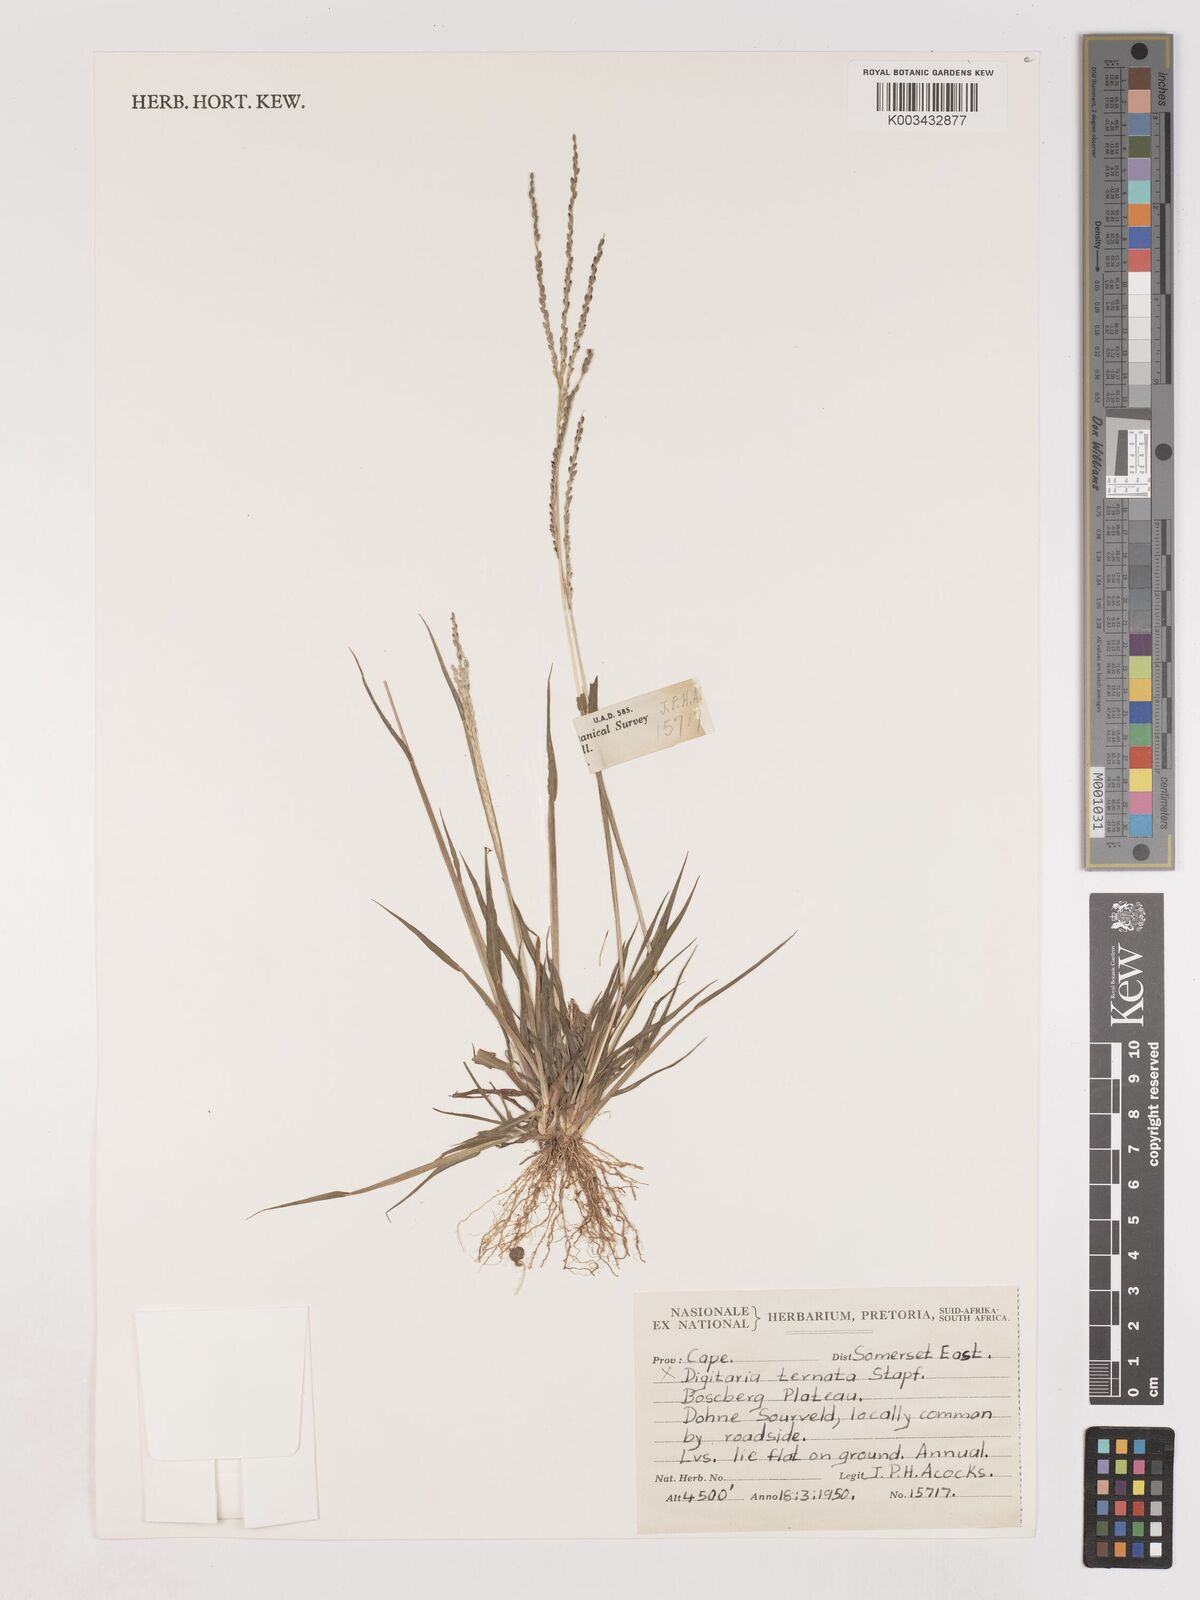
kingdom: Plantae
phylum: Tracheophyta
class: Liliopsida
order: Poales
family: Poaceae
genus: Digitaria
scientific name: Digitaria ternata
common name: Blackseed crabgrass
